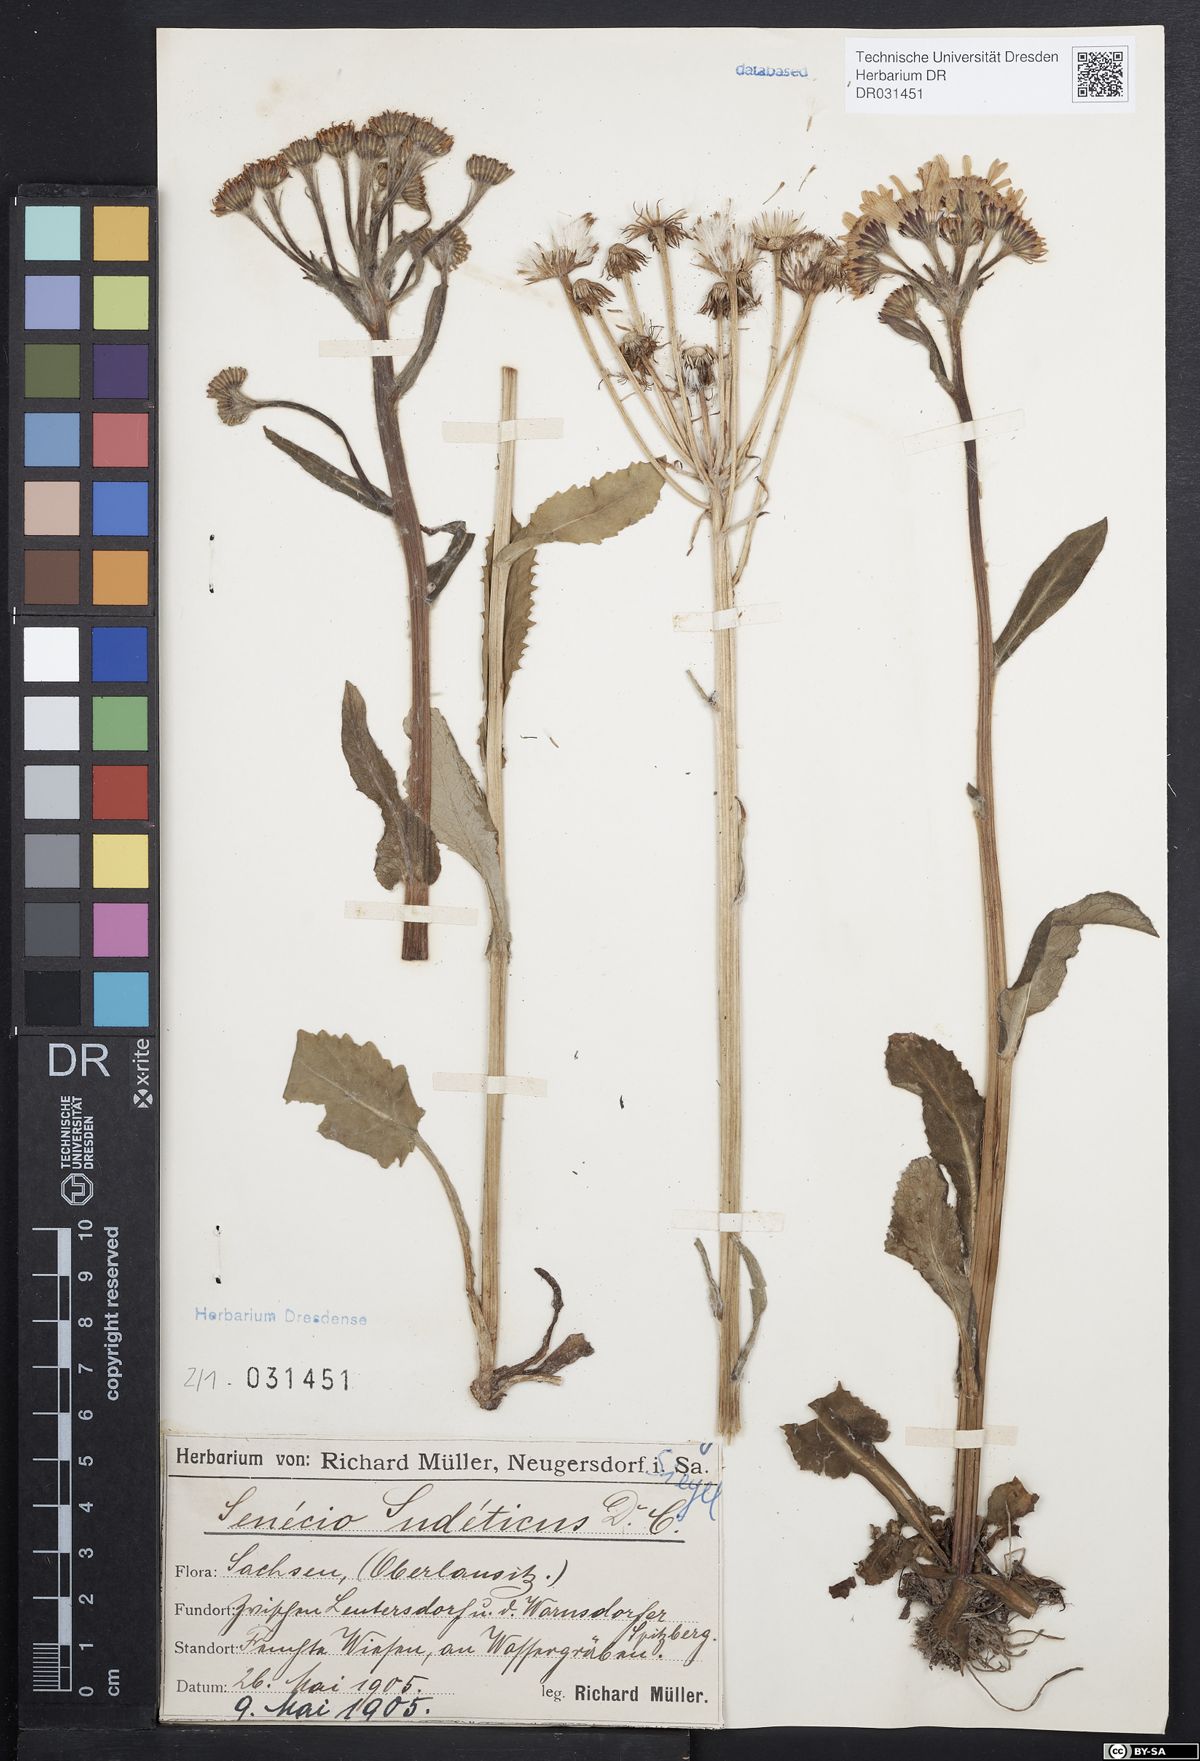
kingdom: Plantae
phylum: Tracheophyta
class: Magnoliopsida
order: Asterales
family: Asteraceae
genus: Tephroseris
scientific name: Tephroseris crispa
